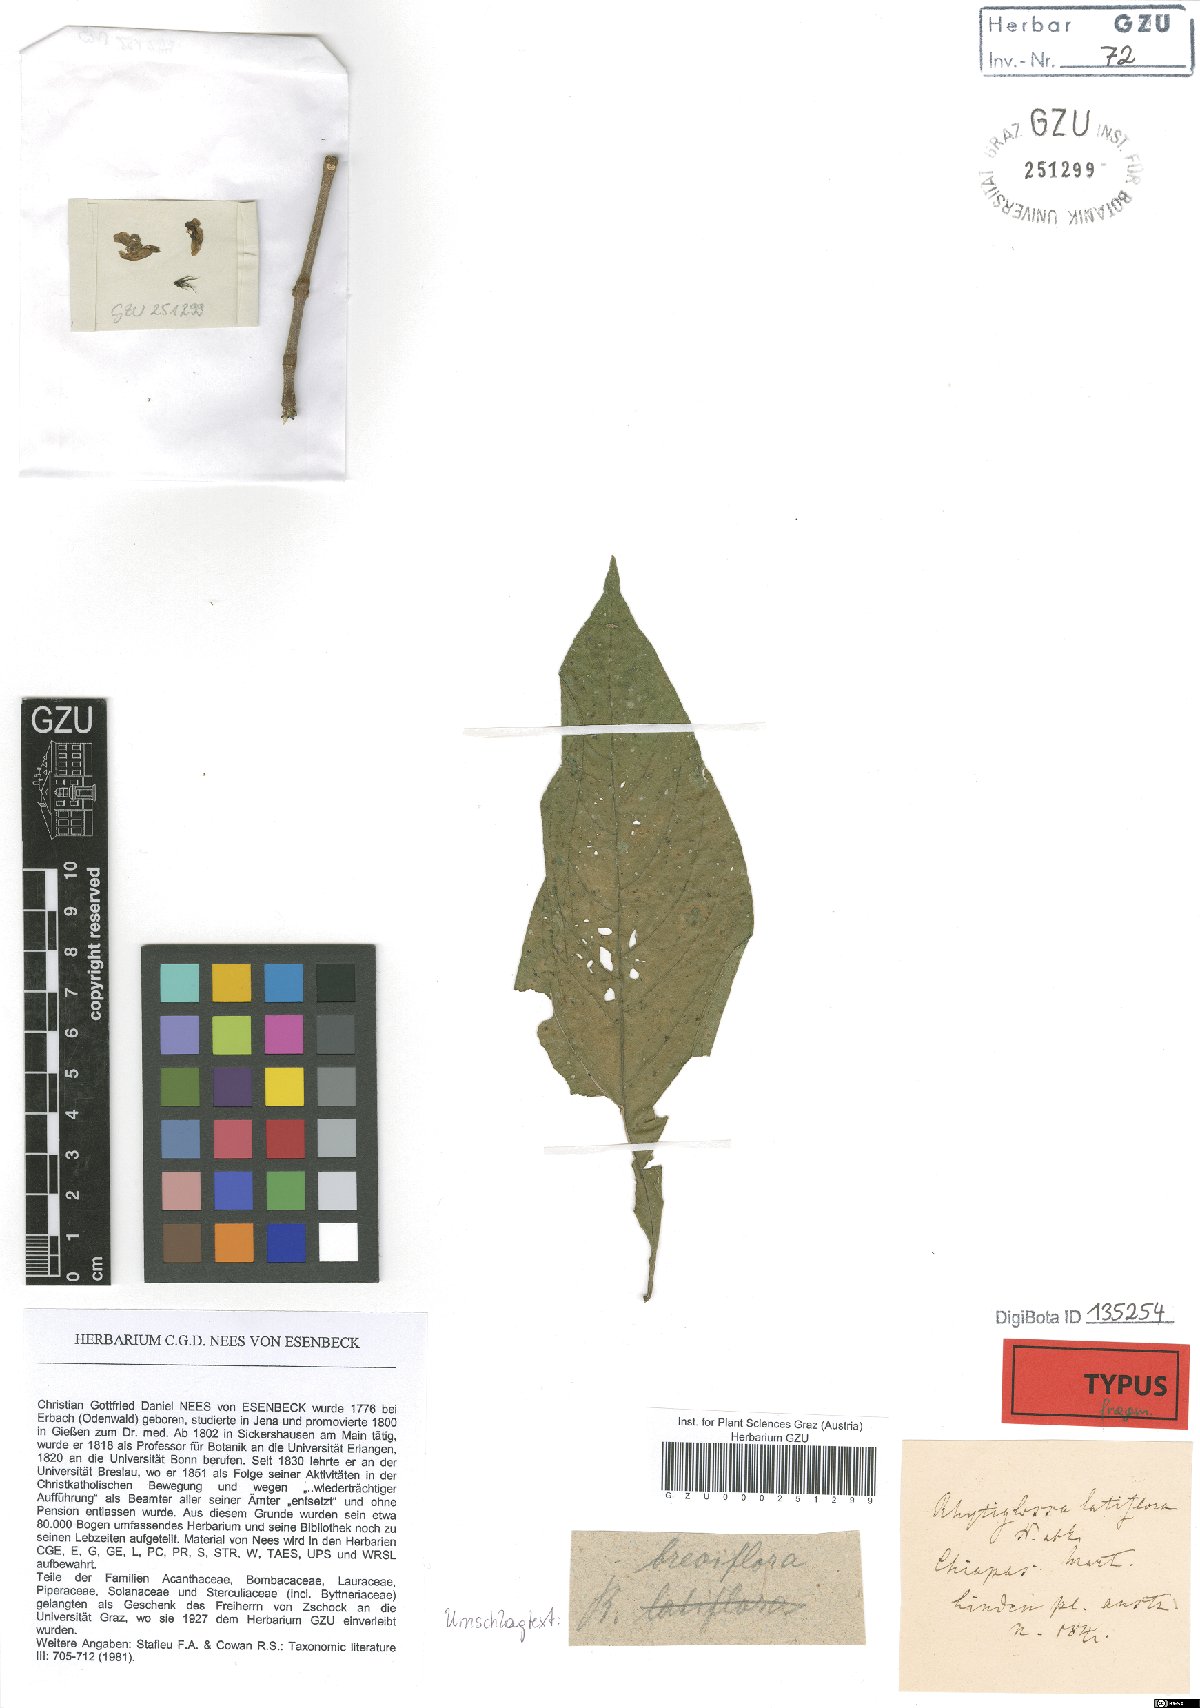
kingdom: Plantae
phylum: Tracheophyta
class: Magnoliopsida
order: Lamiales
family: Acanthaceae
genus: Dianthera
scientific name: Dianthera breviflora
